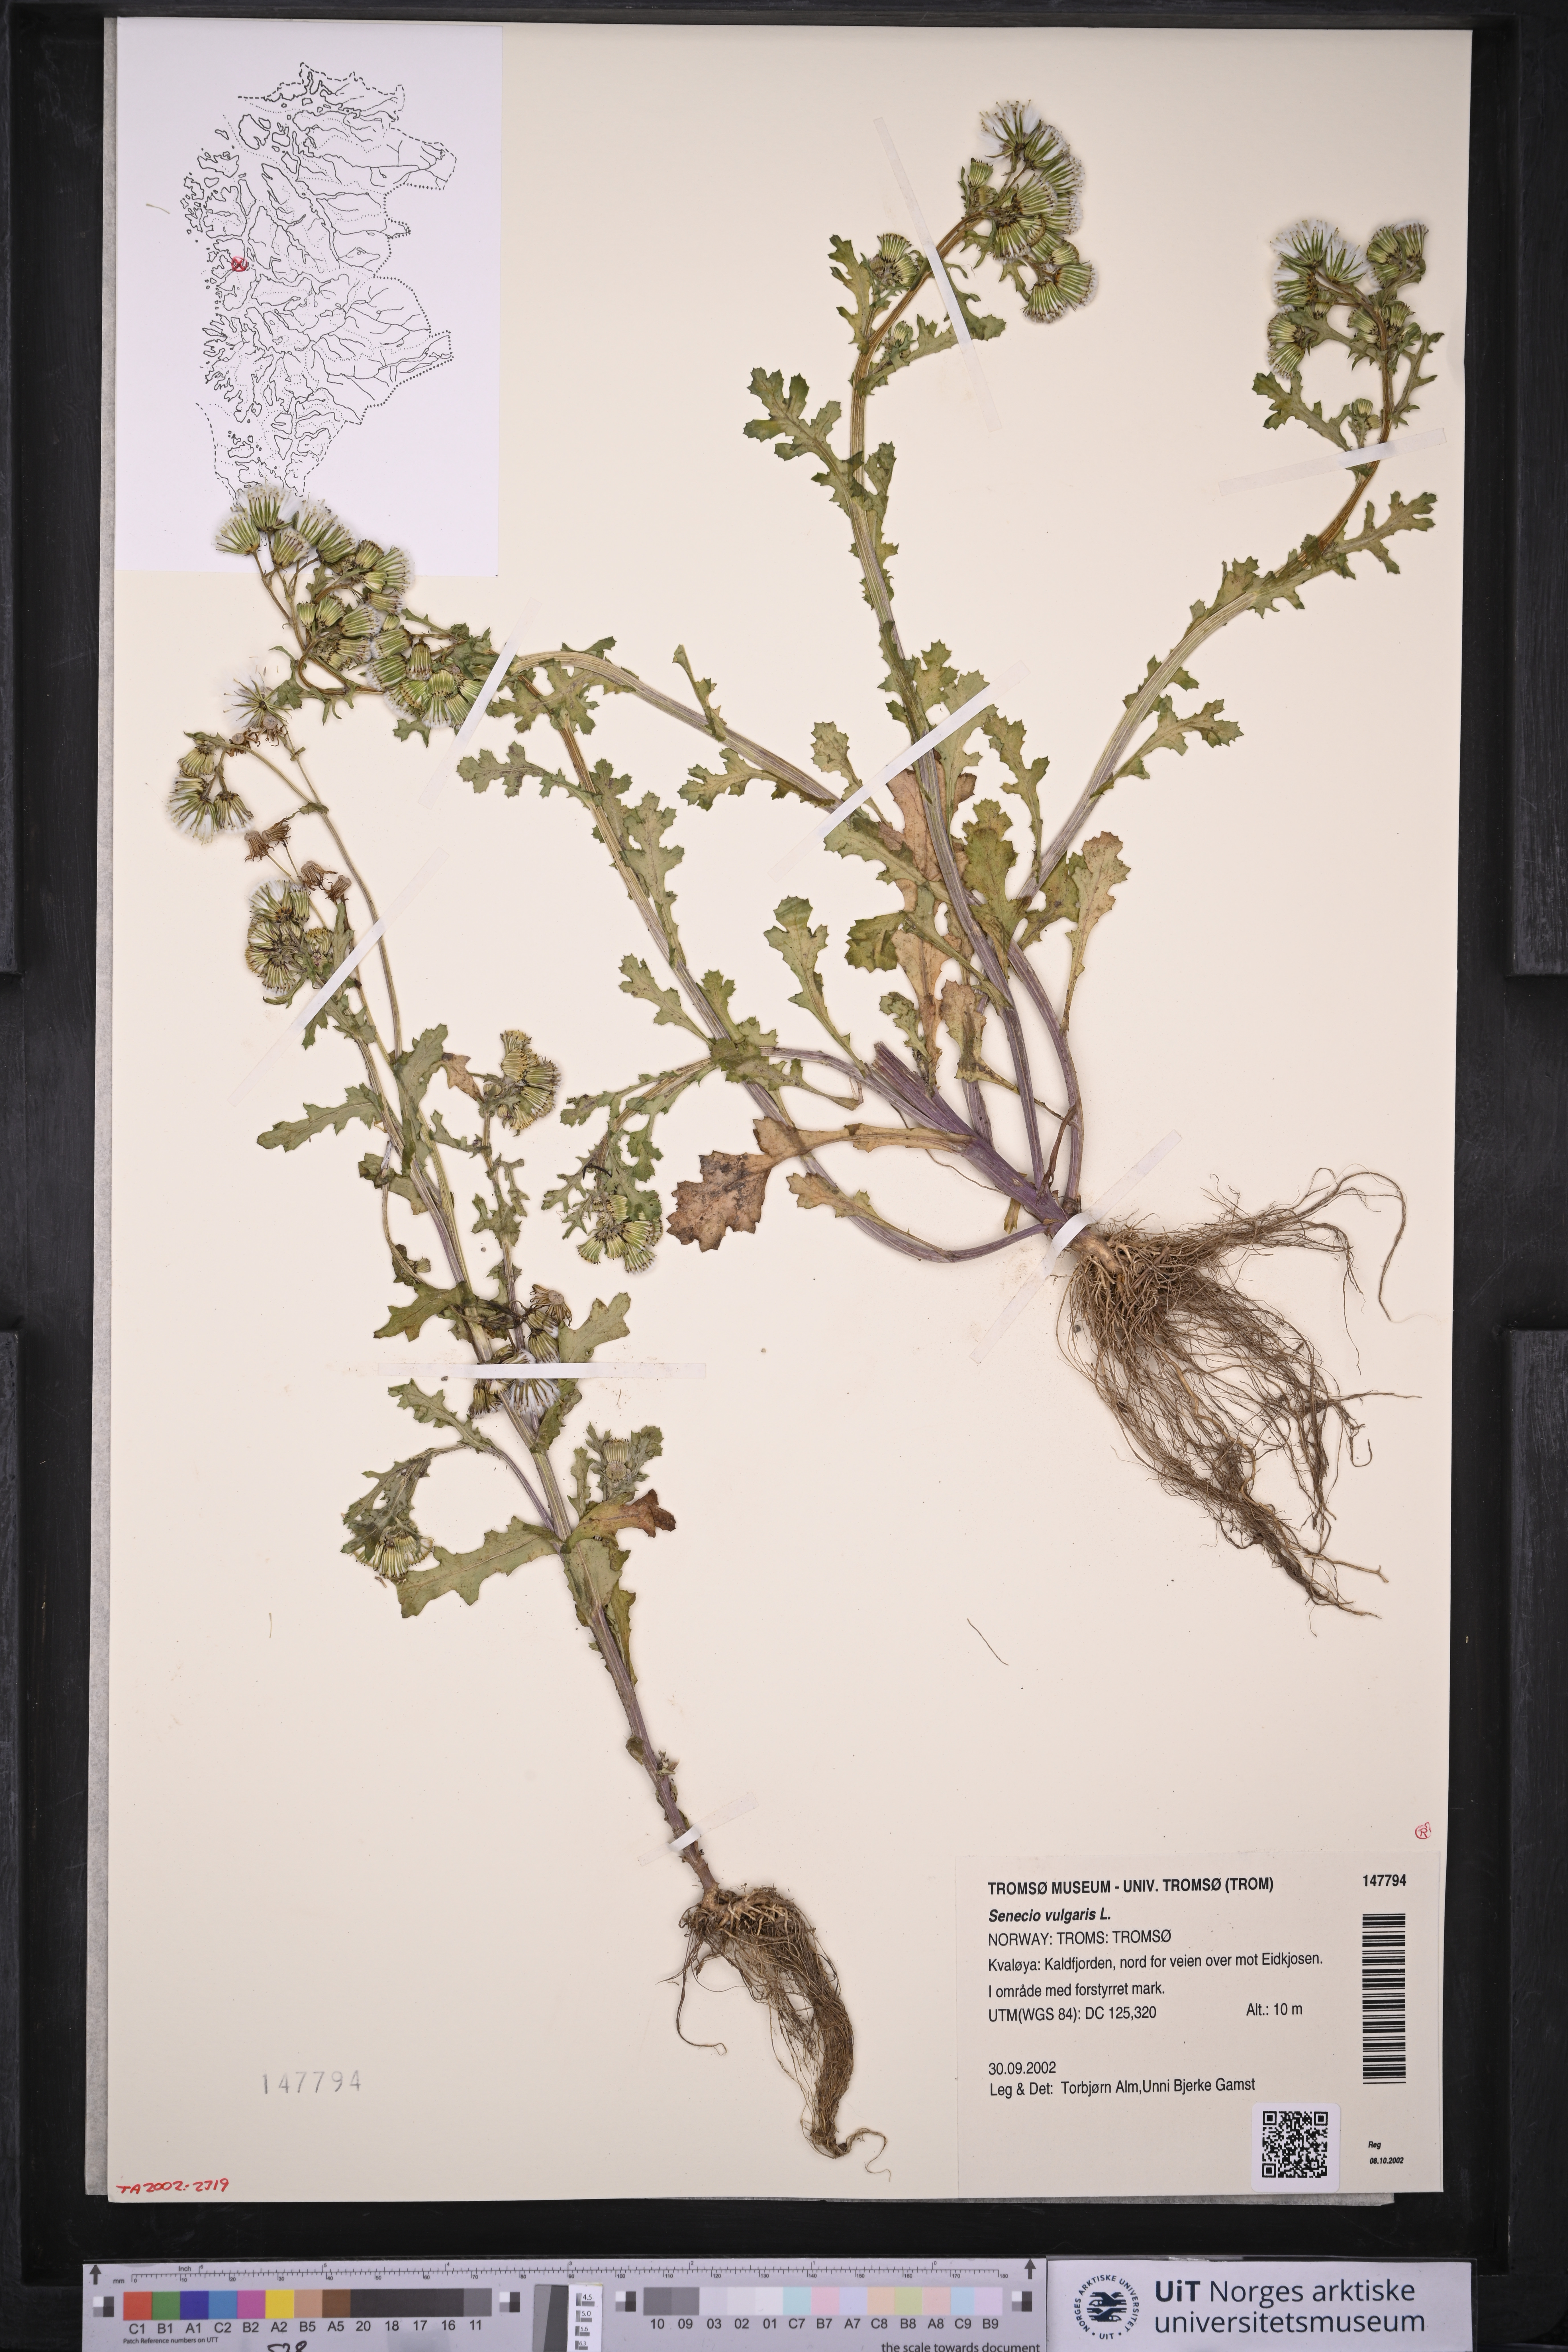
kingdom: Plantae
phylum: Tracheophyta
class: Magnoliopsida
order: Asterales
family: Asteraceae
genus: Senecio
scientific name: Senecio vulgaris
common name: Old-man-in-the-spring
